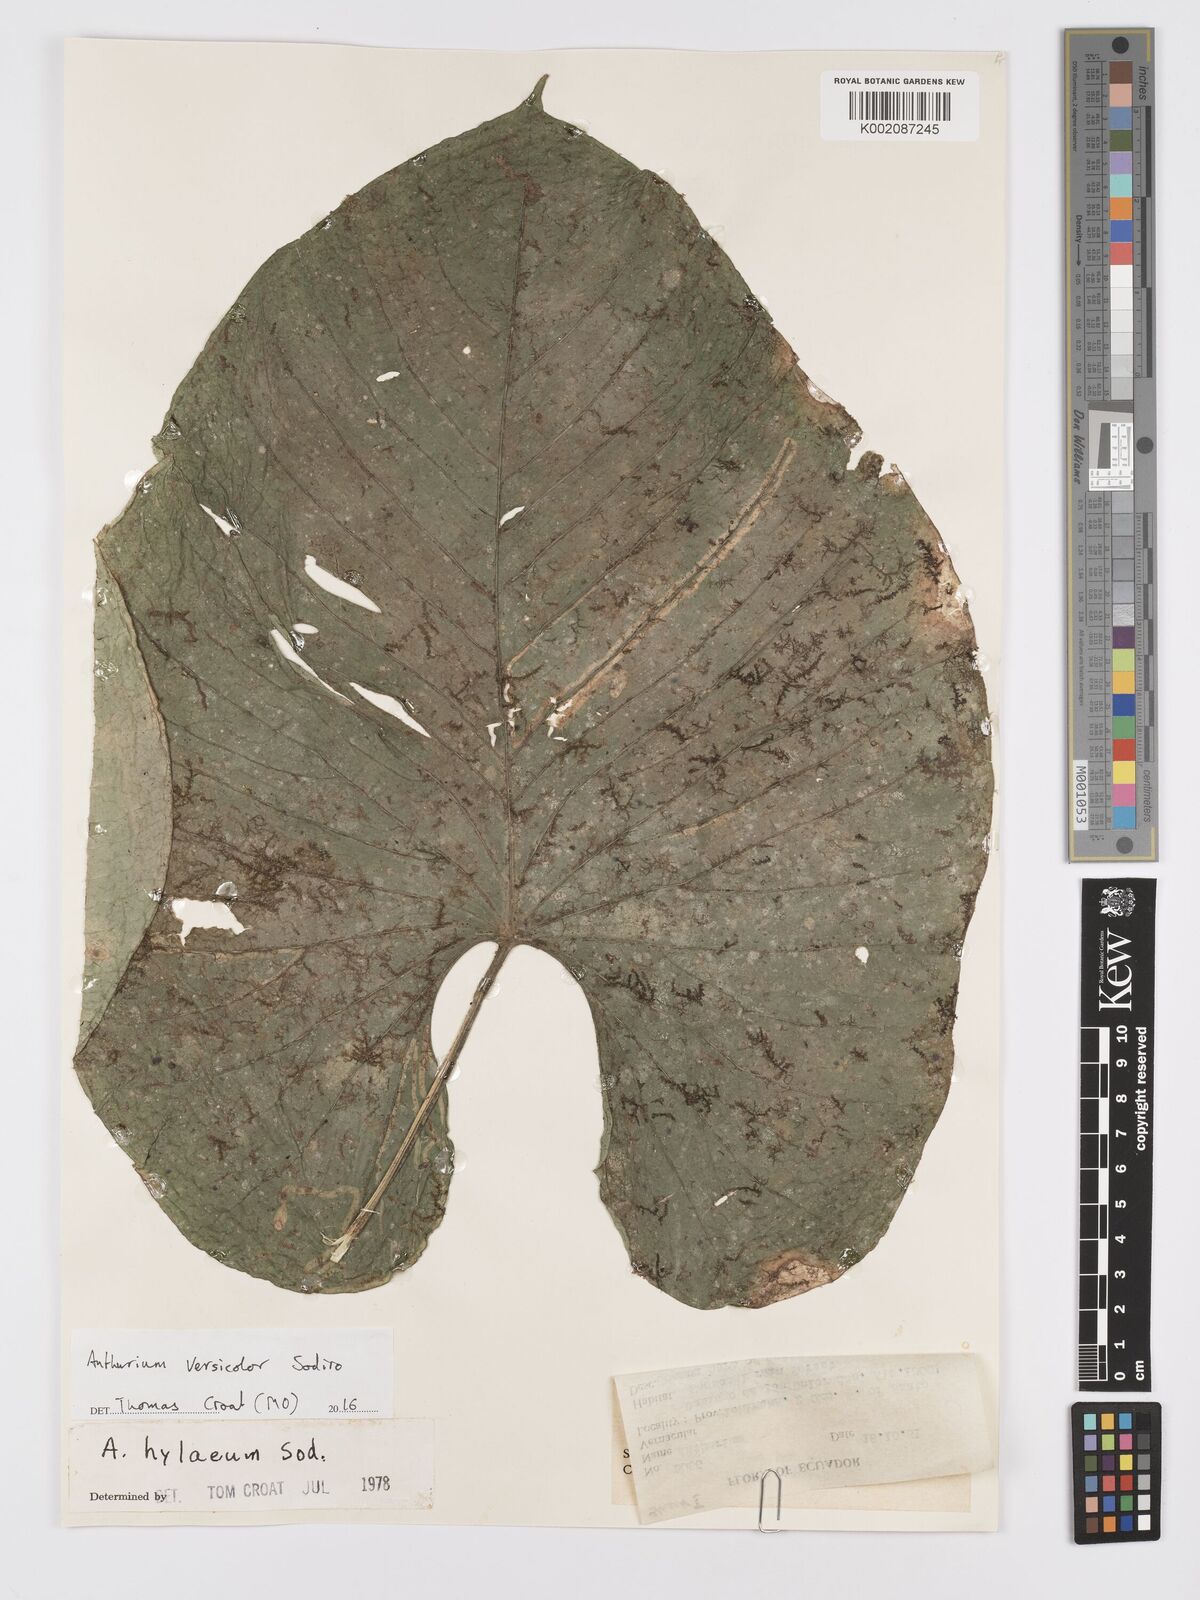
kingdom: Plantae
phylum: Tracheophyta
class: Liliopsida
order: Alismatales
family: Araceae
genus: Anthurium
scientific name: Anthurium versicolor
